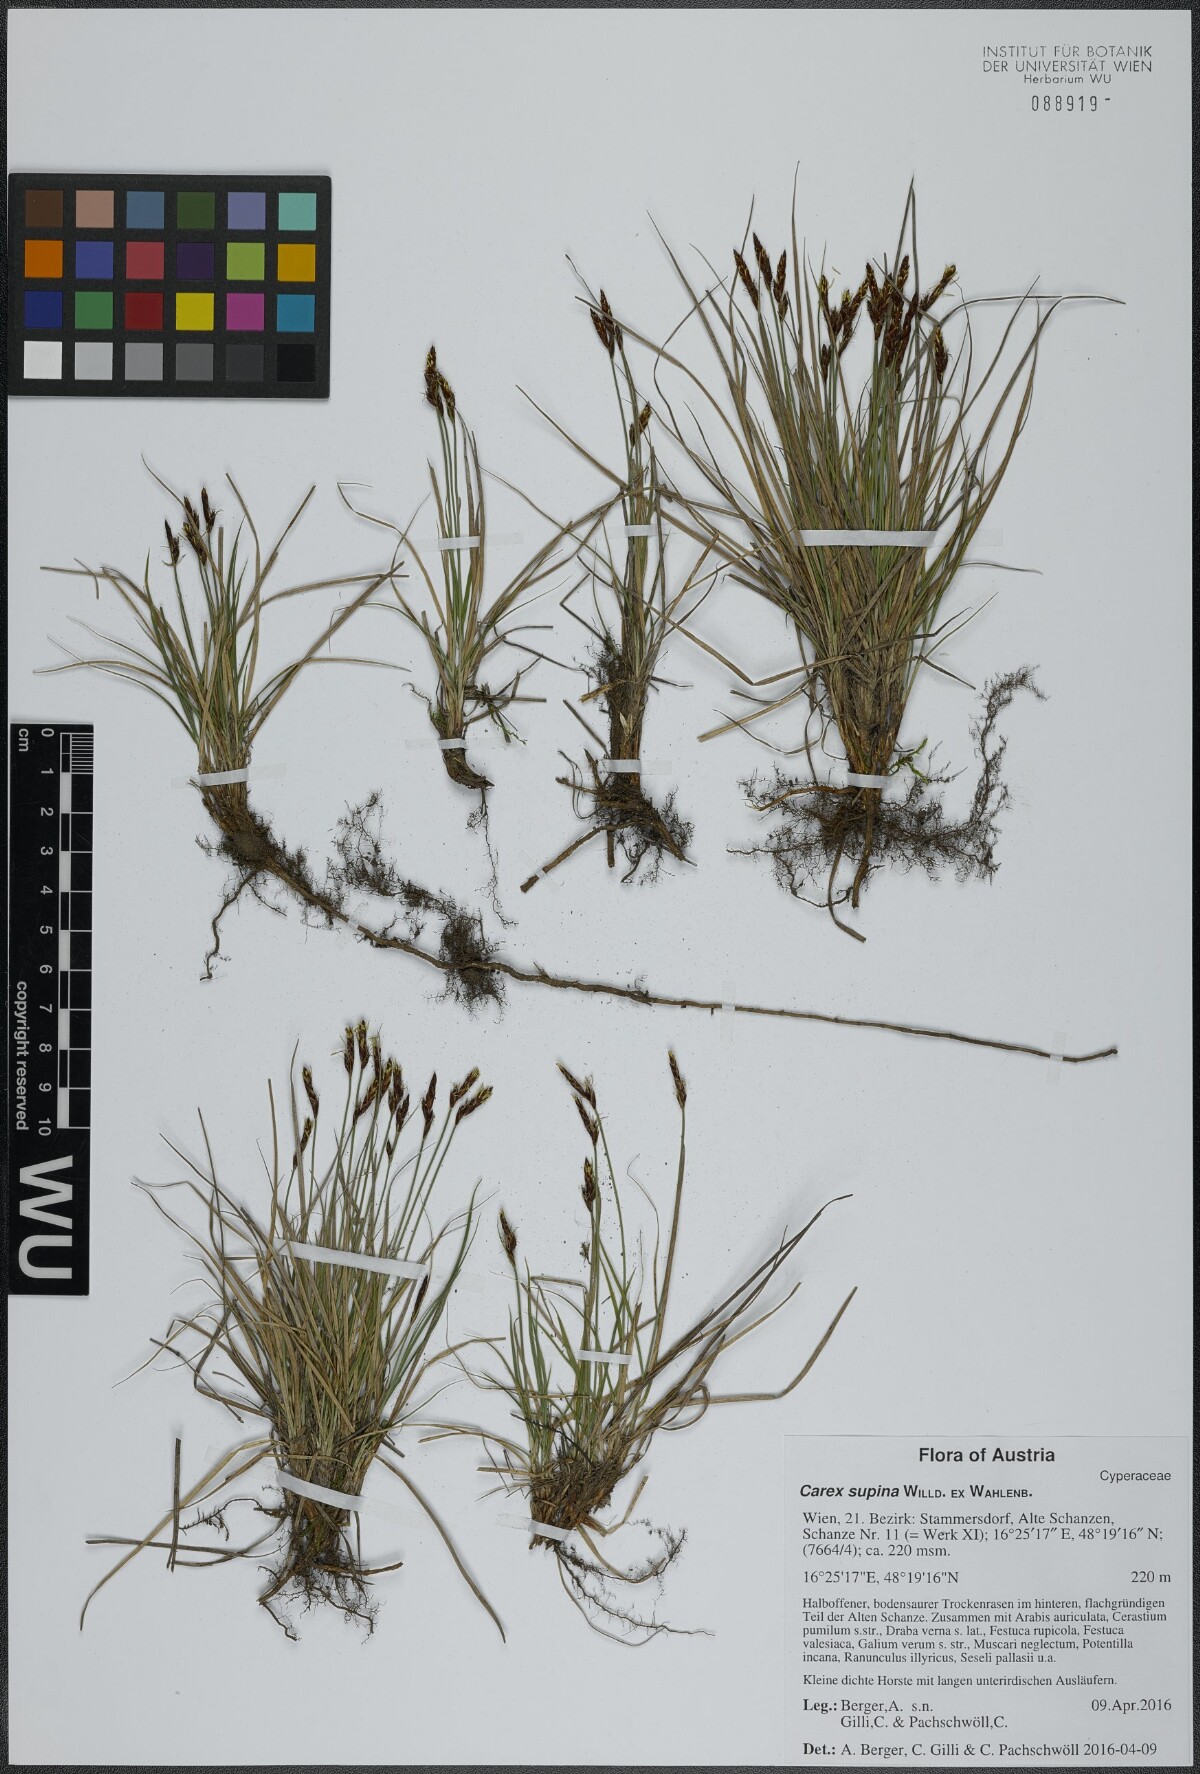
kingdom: Plantae
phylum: Tracheophyta
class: Liliopsida
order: Poales
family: Cyperaceae
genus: Carex
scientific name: Carex supina
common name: Lying-back sedge
